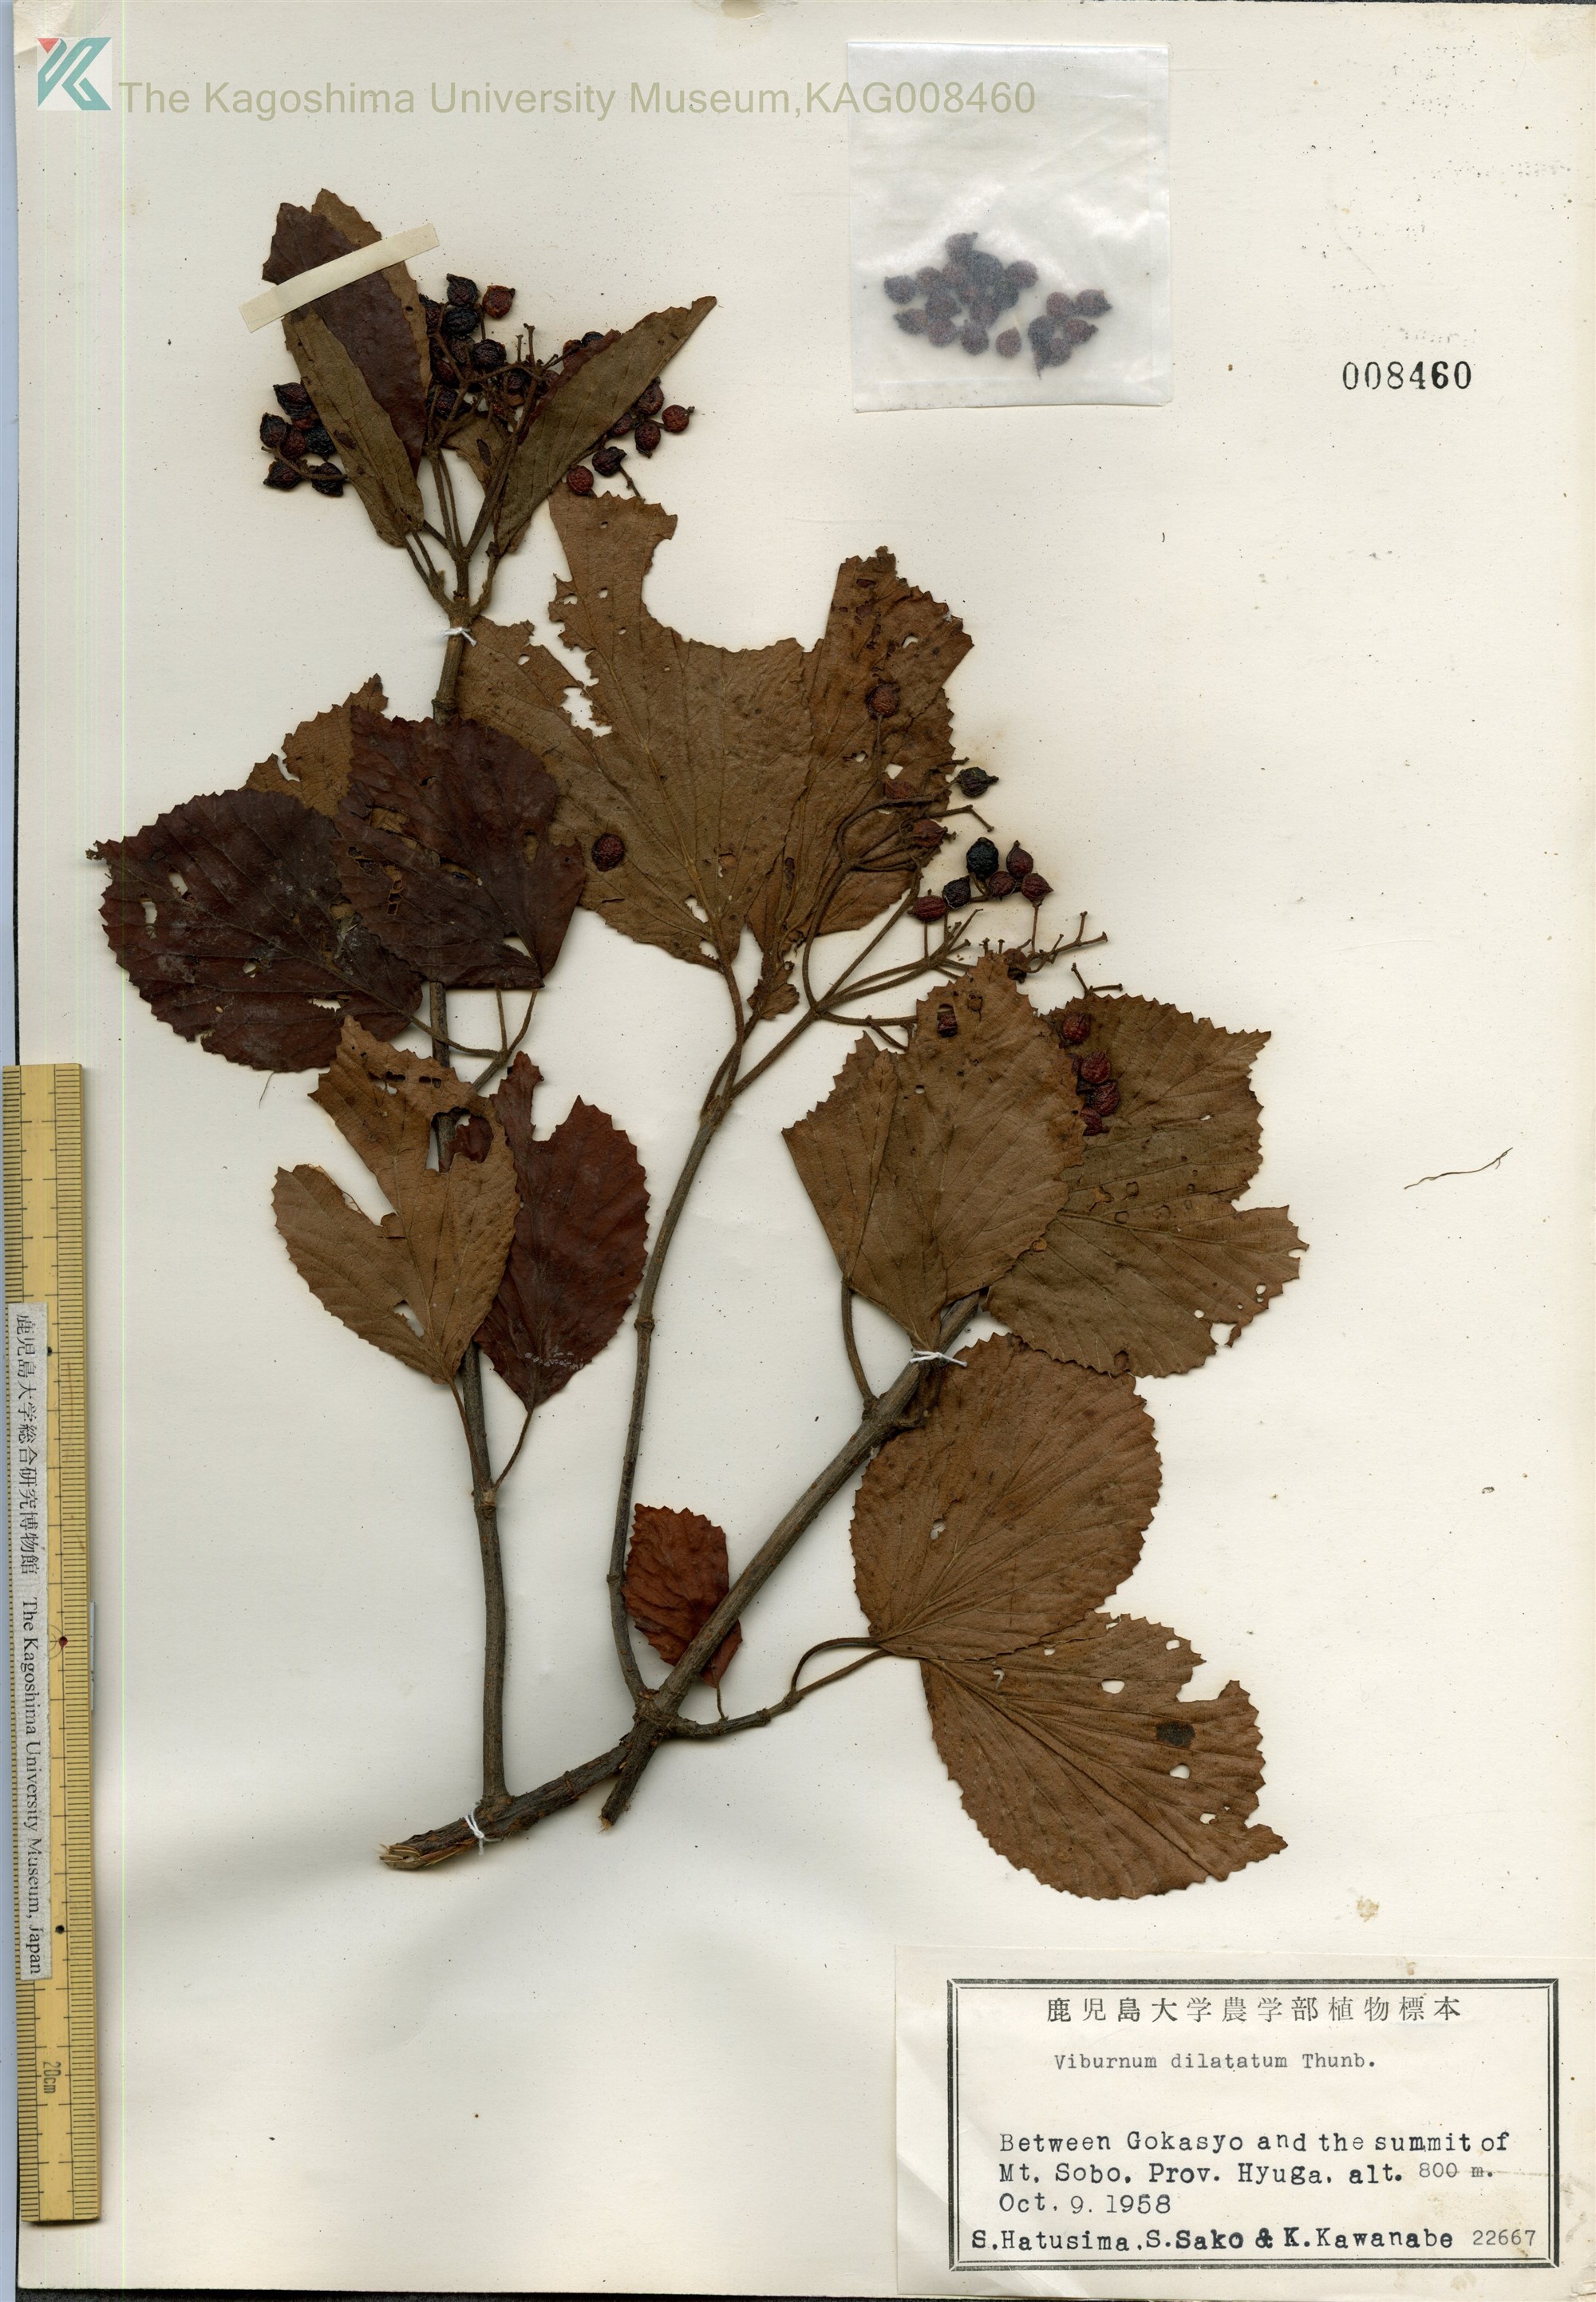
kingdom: Plantae
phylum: Tracheophyta
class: Magnoliopsida
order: Dipsacales
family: Viburnaceae
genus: Viburnum
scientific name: Viburnum dilatatum
